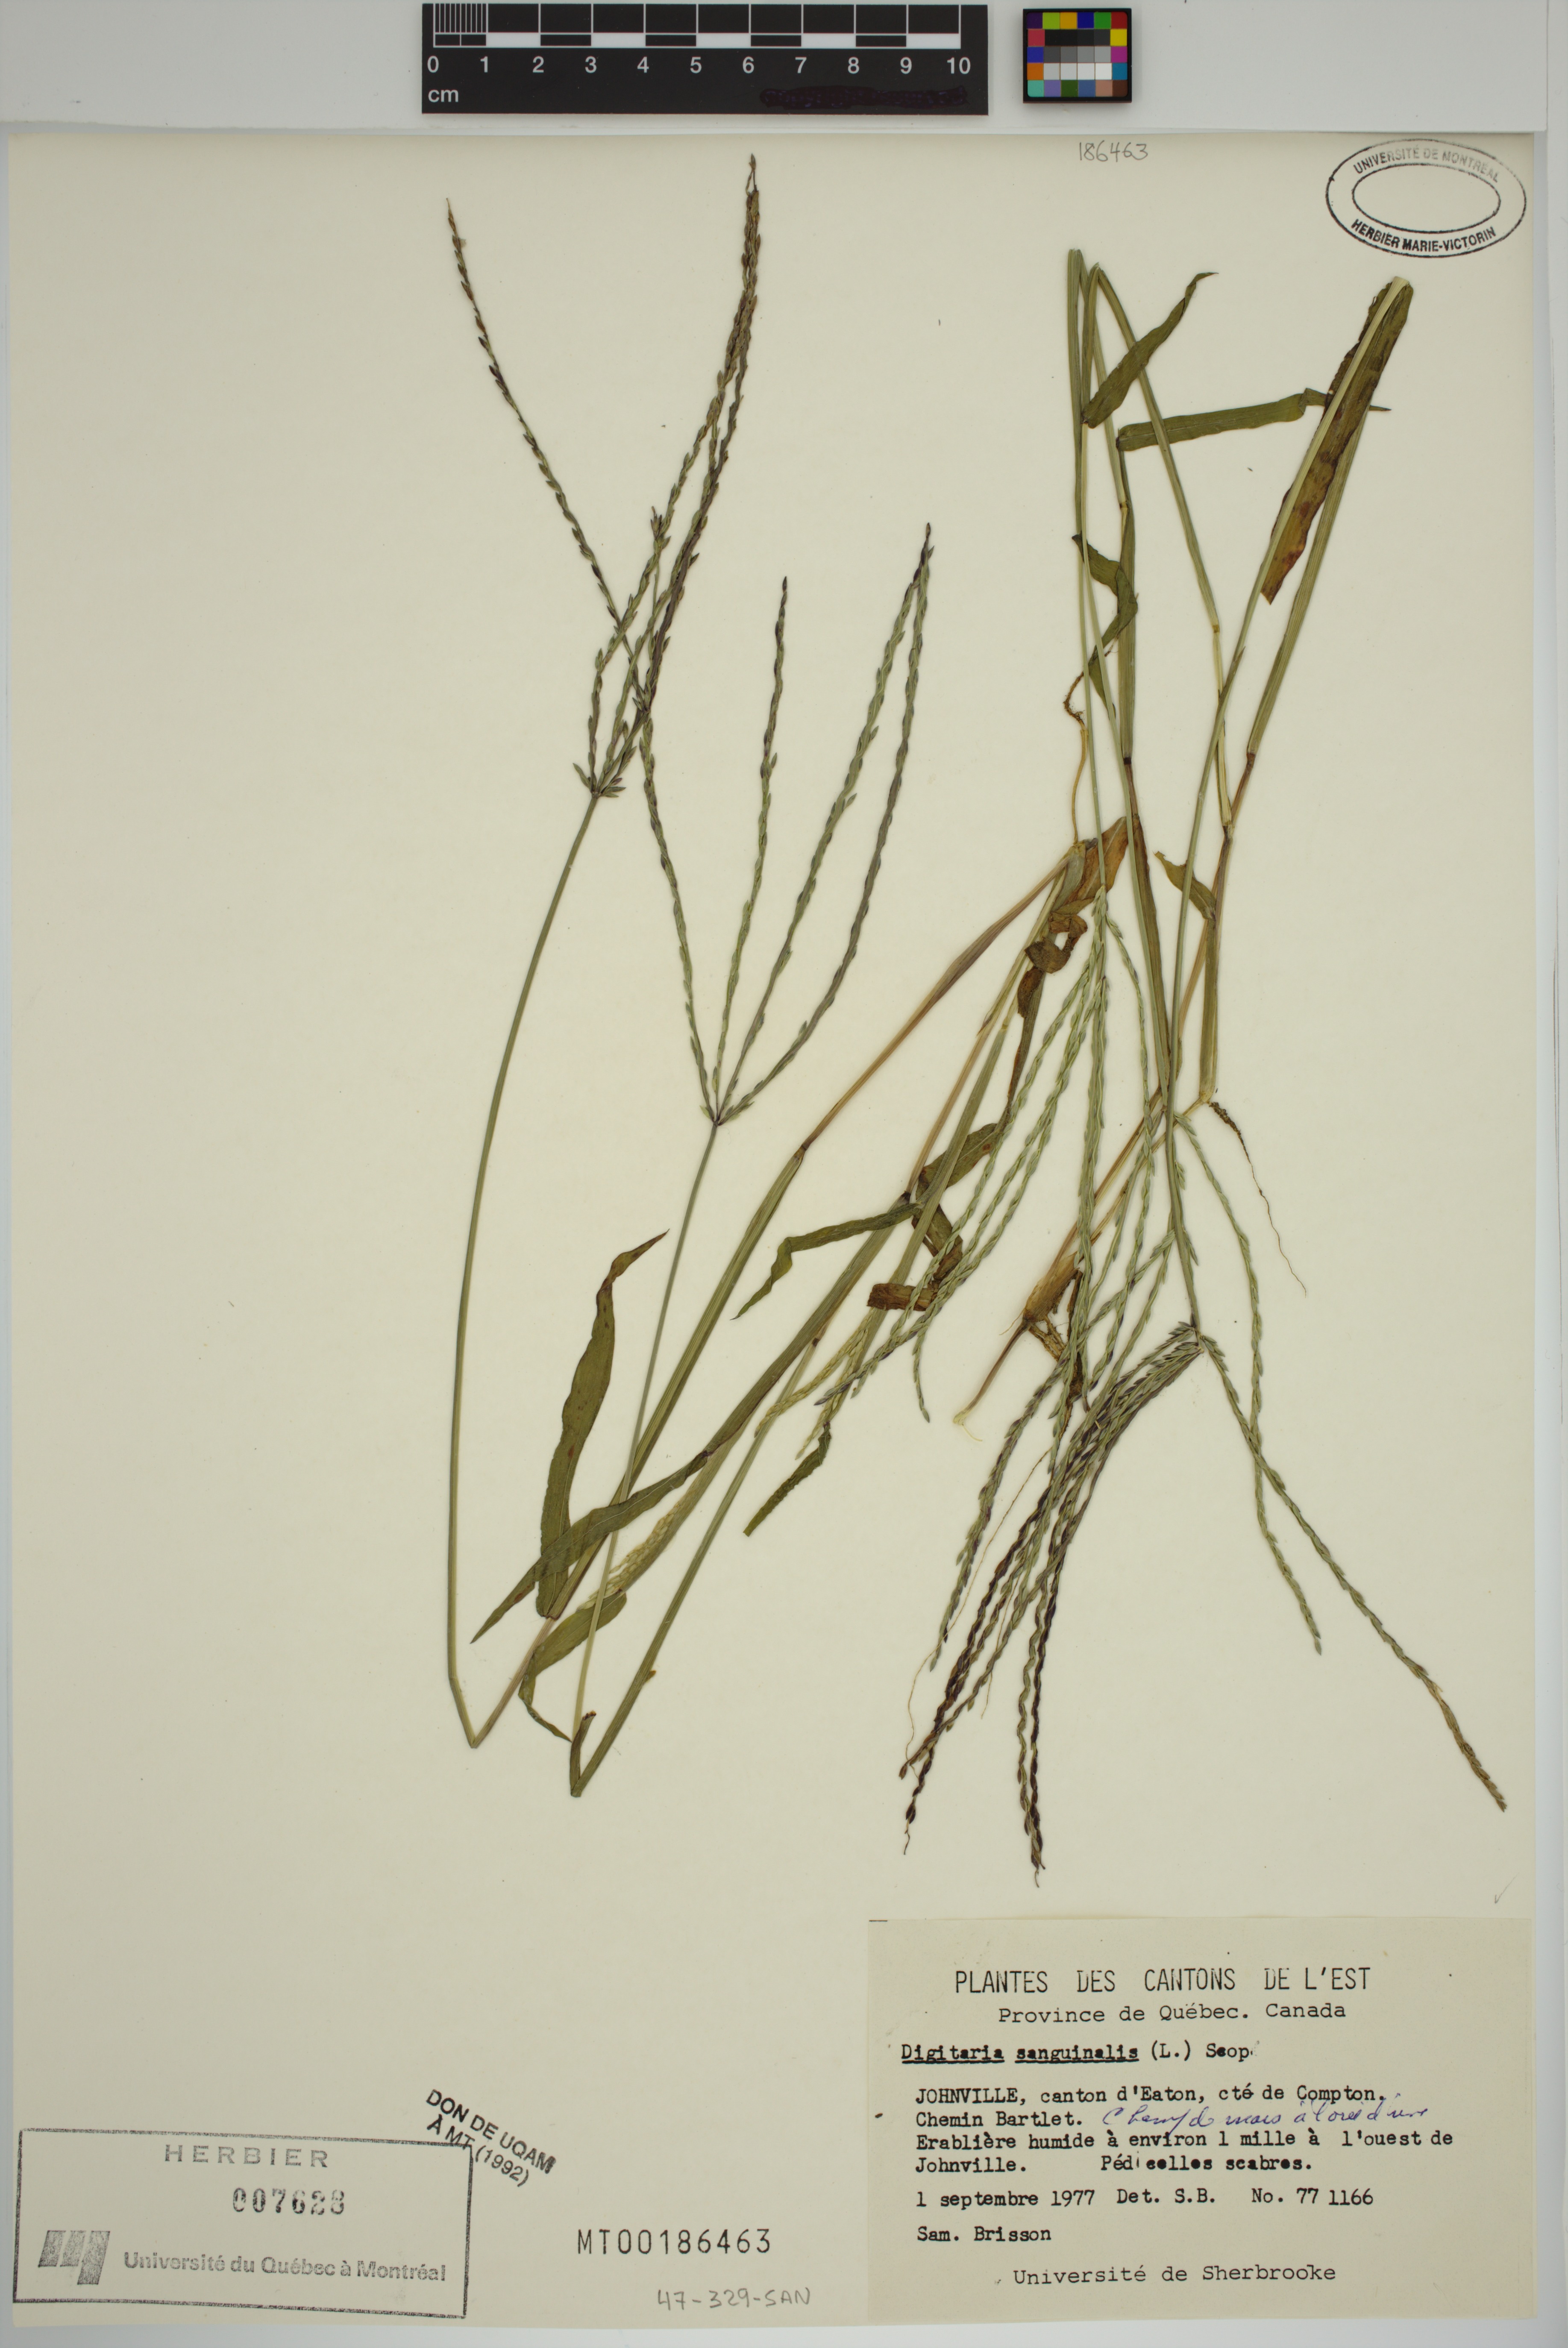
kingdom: Plantae
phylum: Tracheophyta
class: Liliopsida
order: Poales
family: Poaceae
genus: Digitaria
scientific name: Digitaria sanguinalis
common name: Hairy crabgrass
